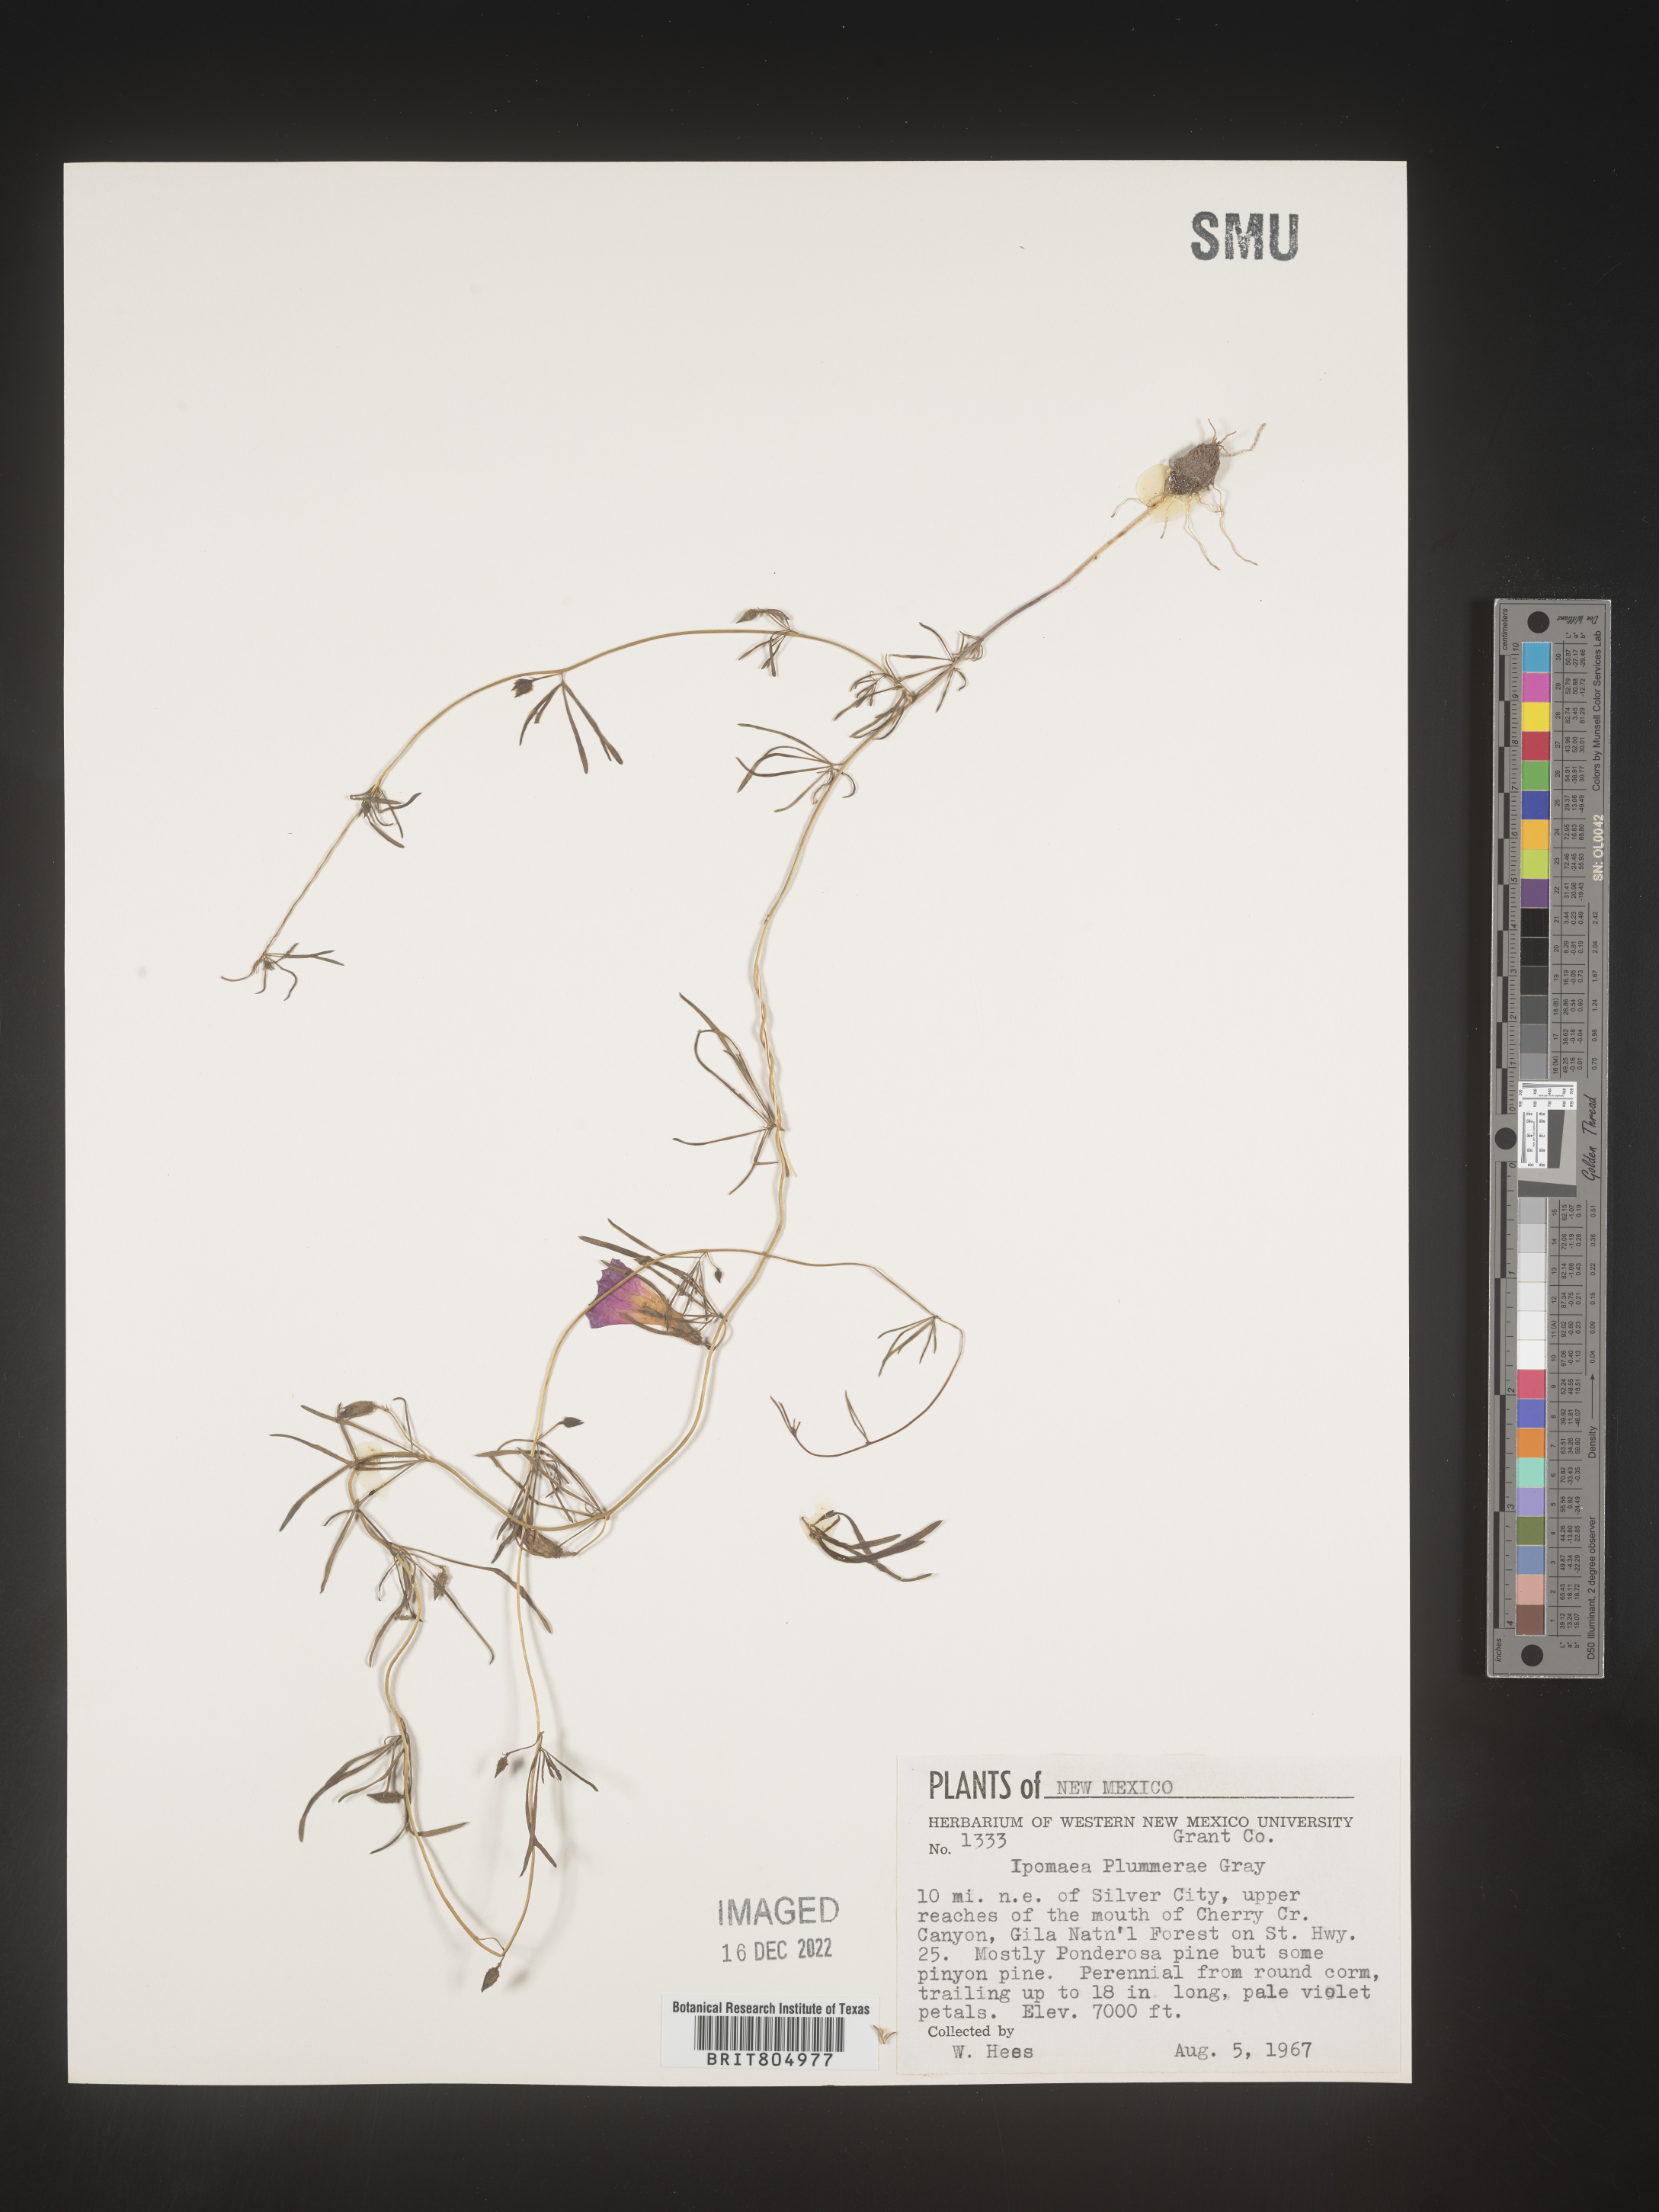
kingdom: Plantae
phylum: Tracheophyta
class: Magnoliopsida
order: Solanales
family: Convolvulaceae
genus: Ipomoea
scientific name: Ipomoea plummerae
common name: Plummer's morning-glory
